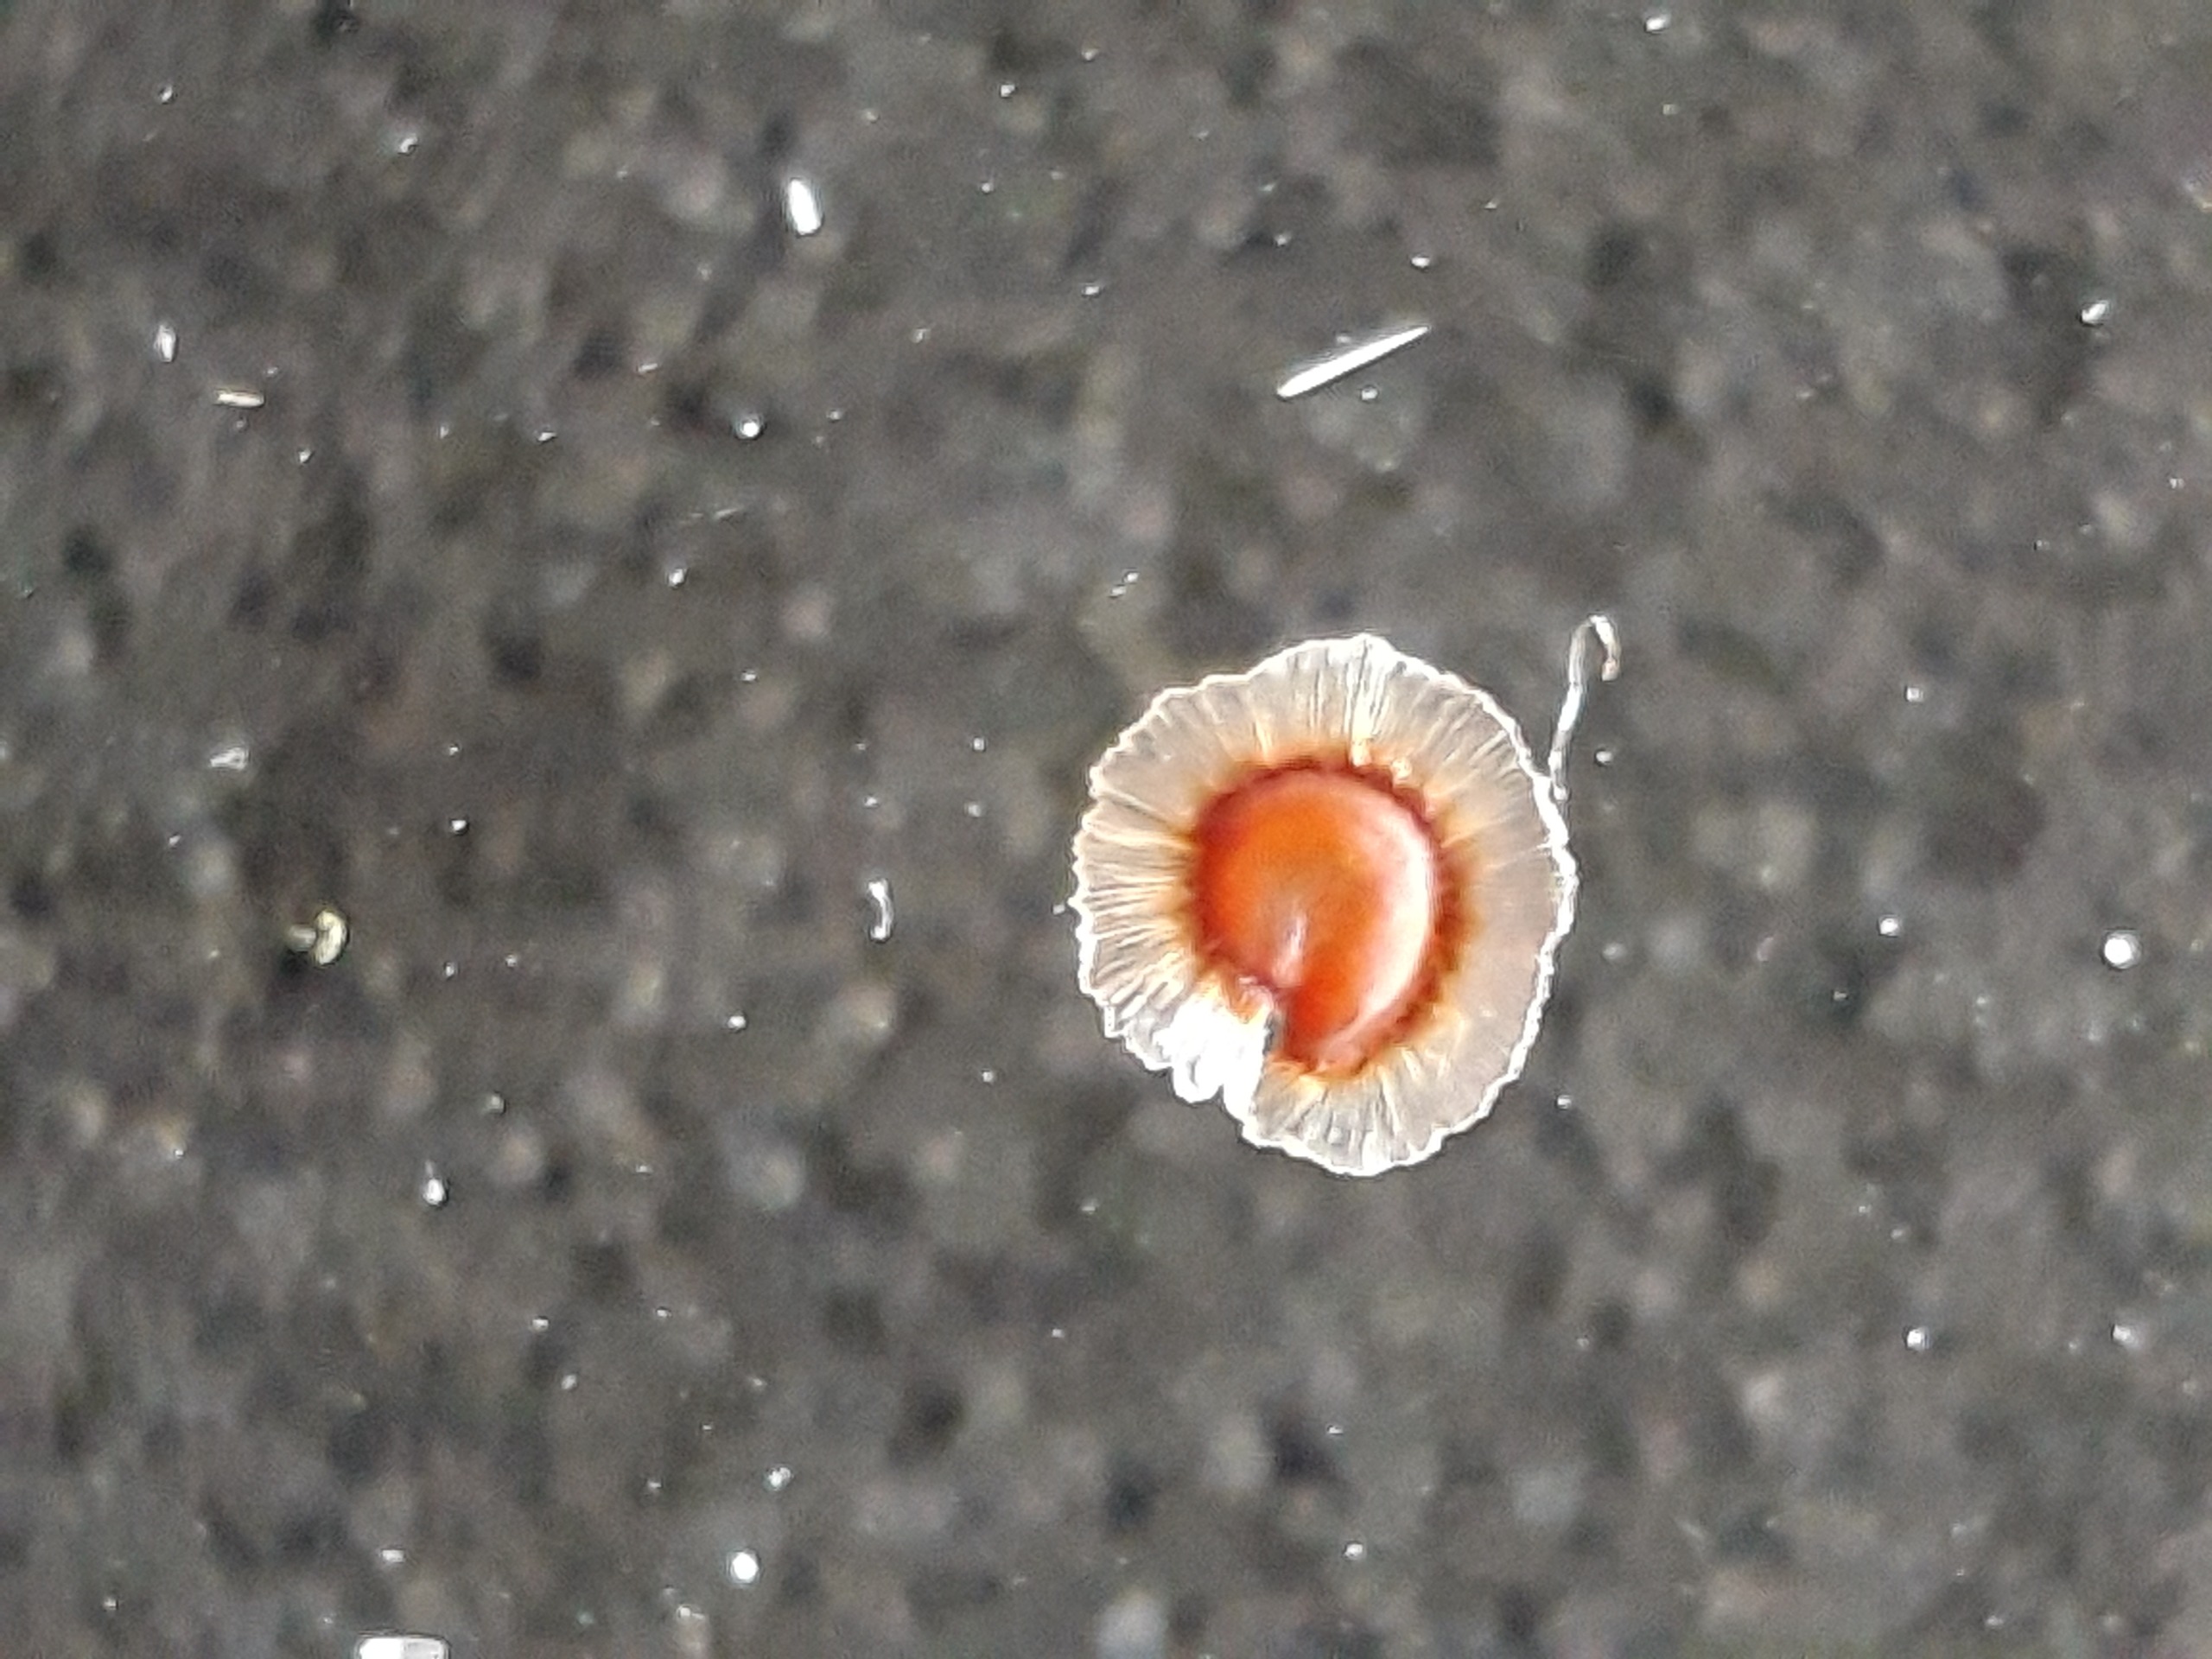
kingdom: Plantae
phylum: Tracheophyta
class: Magnoliopsida
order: Caryophyllales
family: Caryophyllaceae
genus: Spergularia
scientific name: Spergularia media
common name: Vingefrøet hindeknæ
